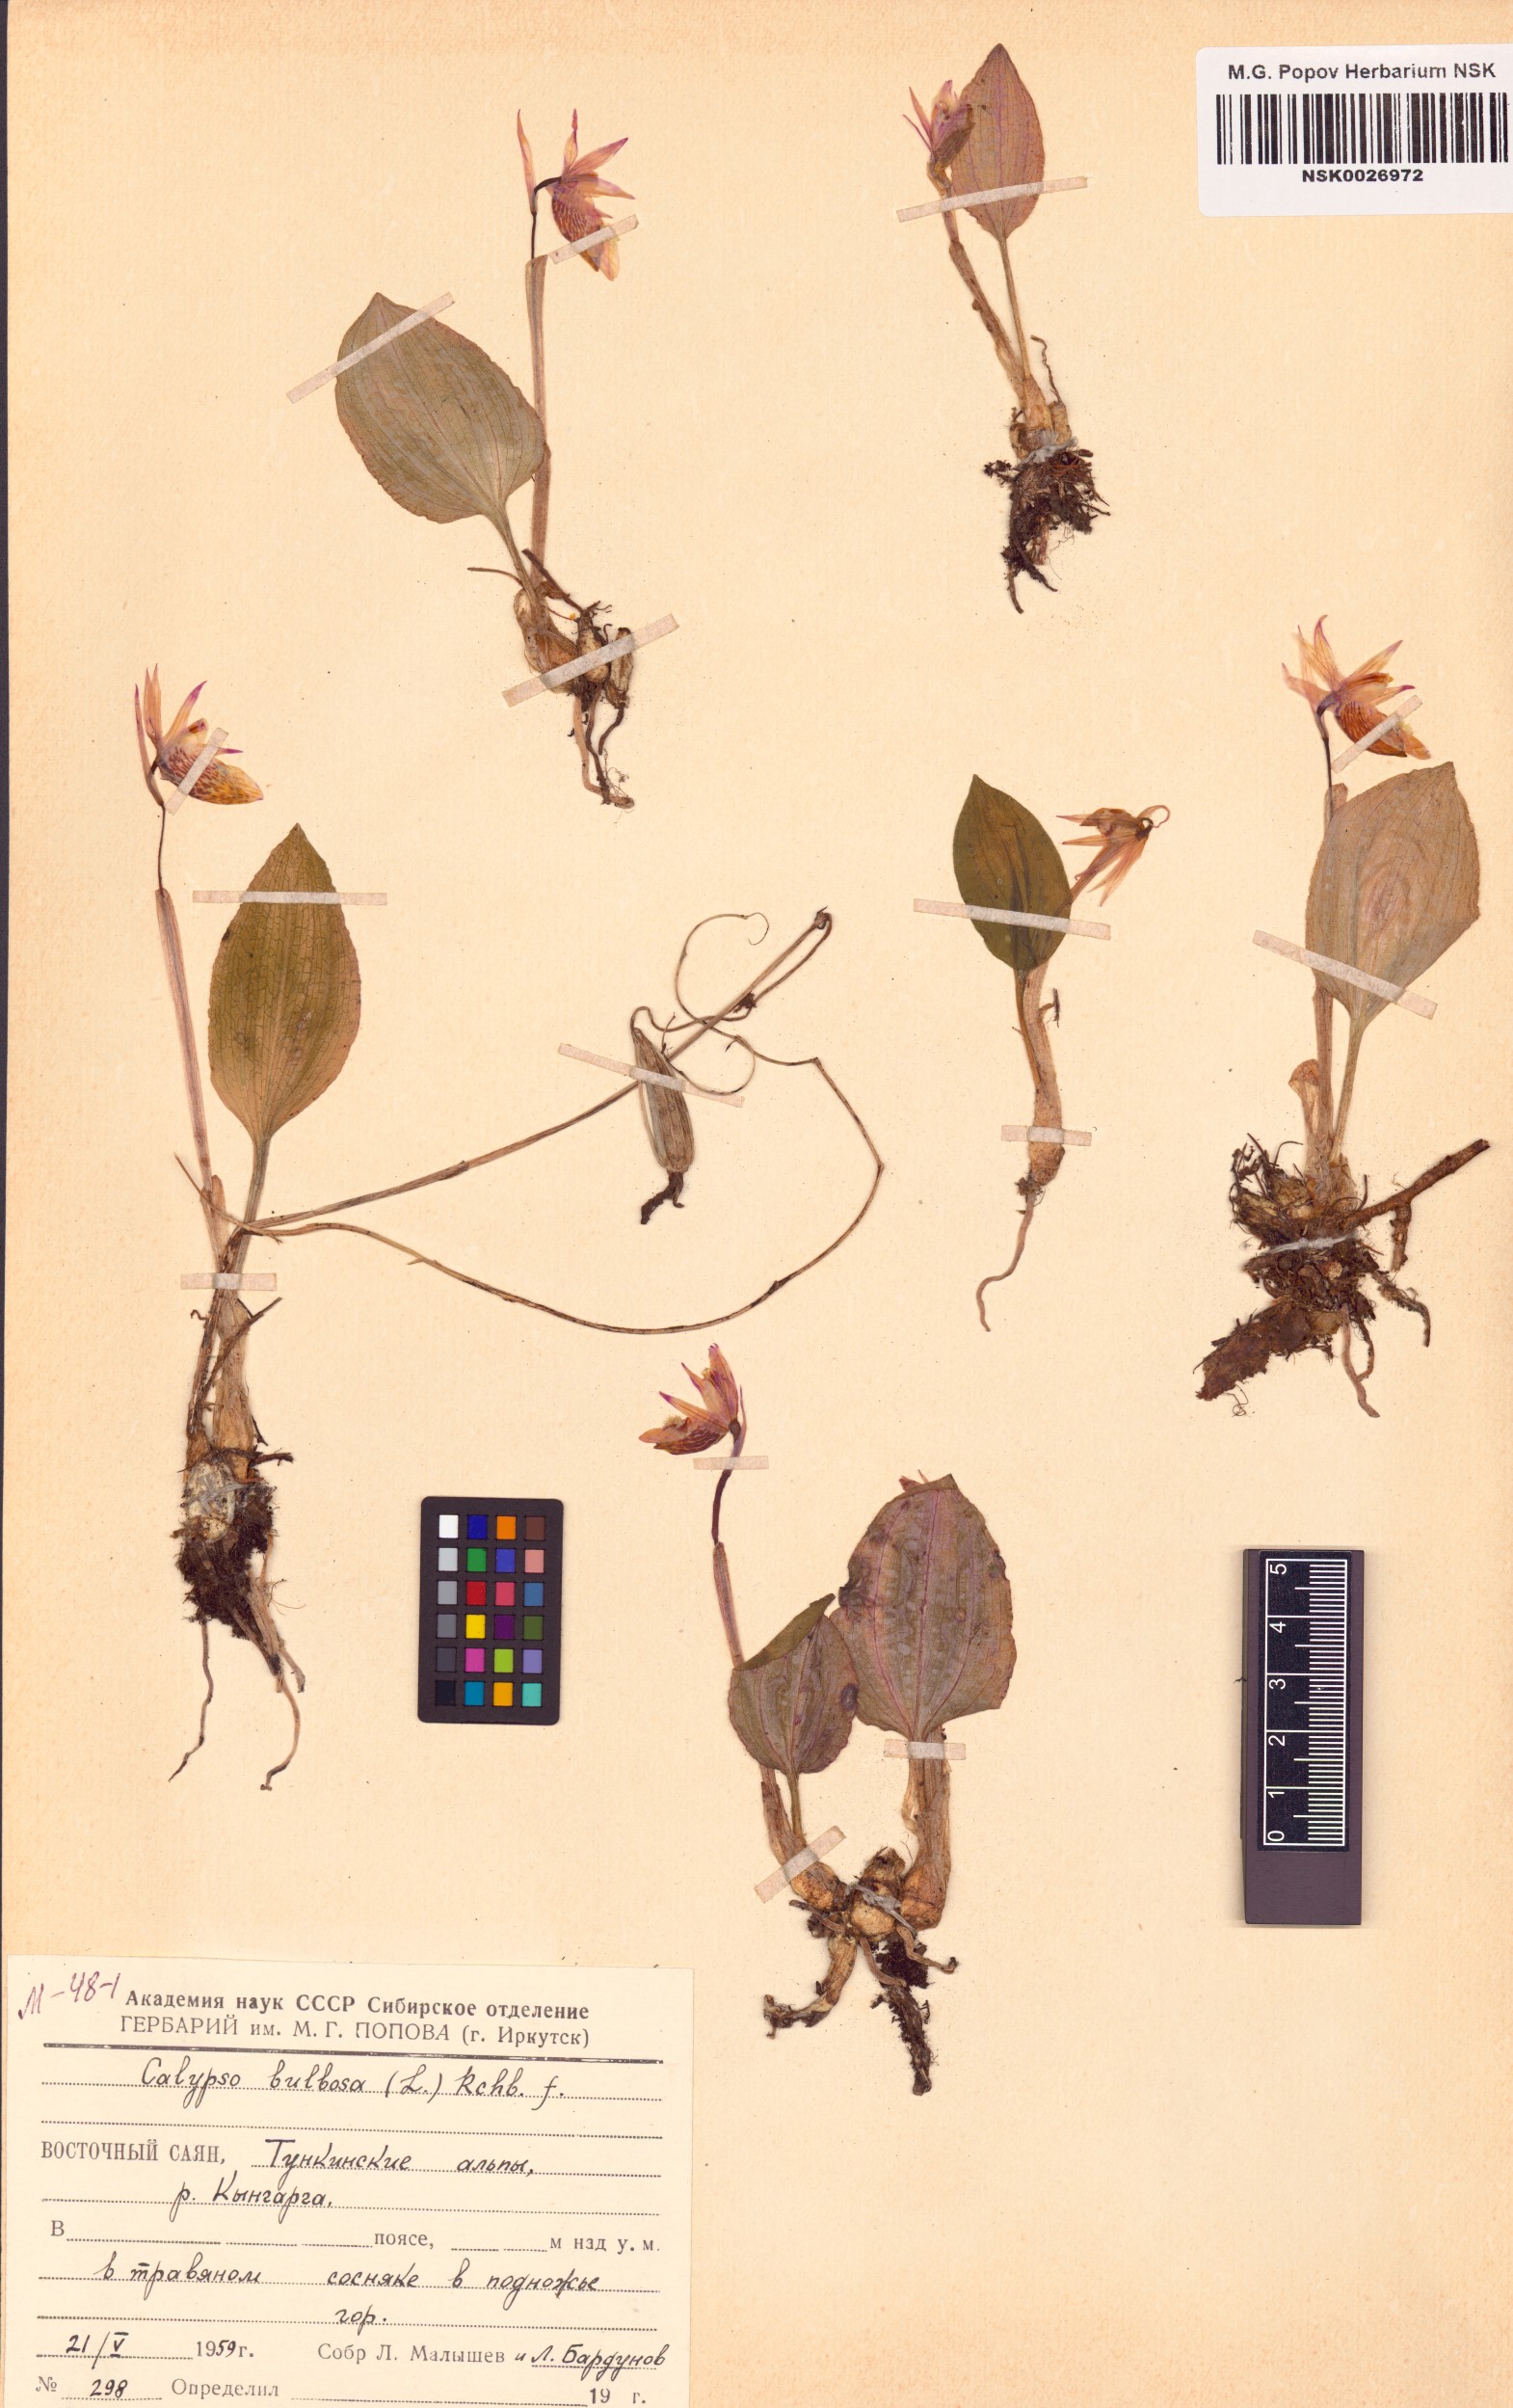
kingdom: Plantae
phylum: Tracheophyta
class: Liliopsida
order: Asparagales
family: Orchidaceae
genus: Calypso
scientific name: Calypso bulbosa
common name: Calypso
